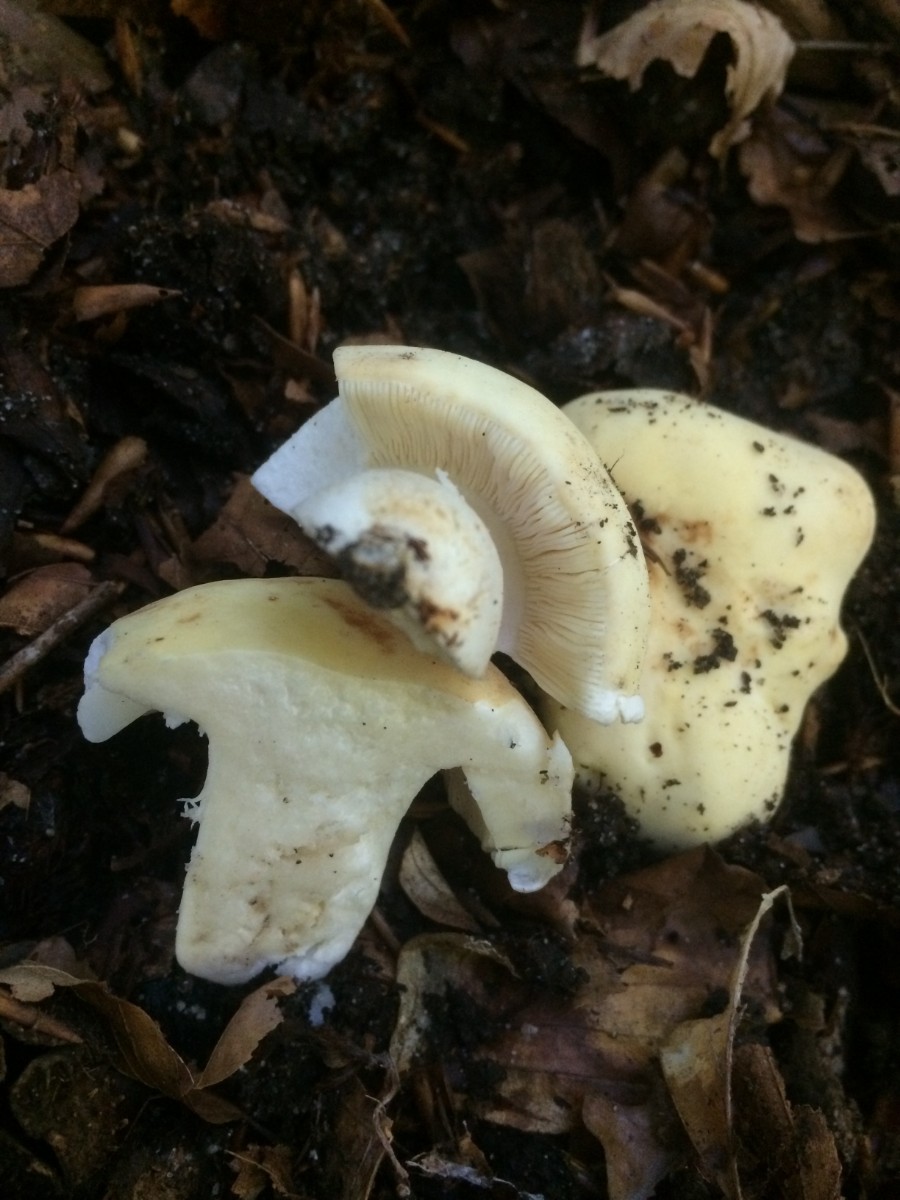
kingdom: Fungi
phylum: Basidiomycota
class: Agaricomycetes
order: Russulales
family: Russulaceae
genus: Russula
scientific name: Russula violeipes
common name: ferskengul skørhat
